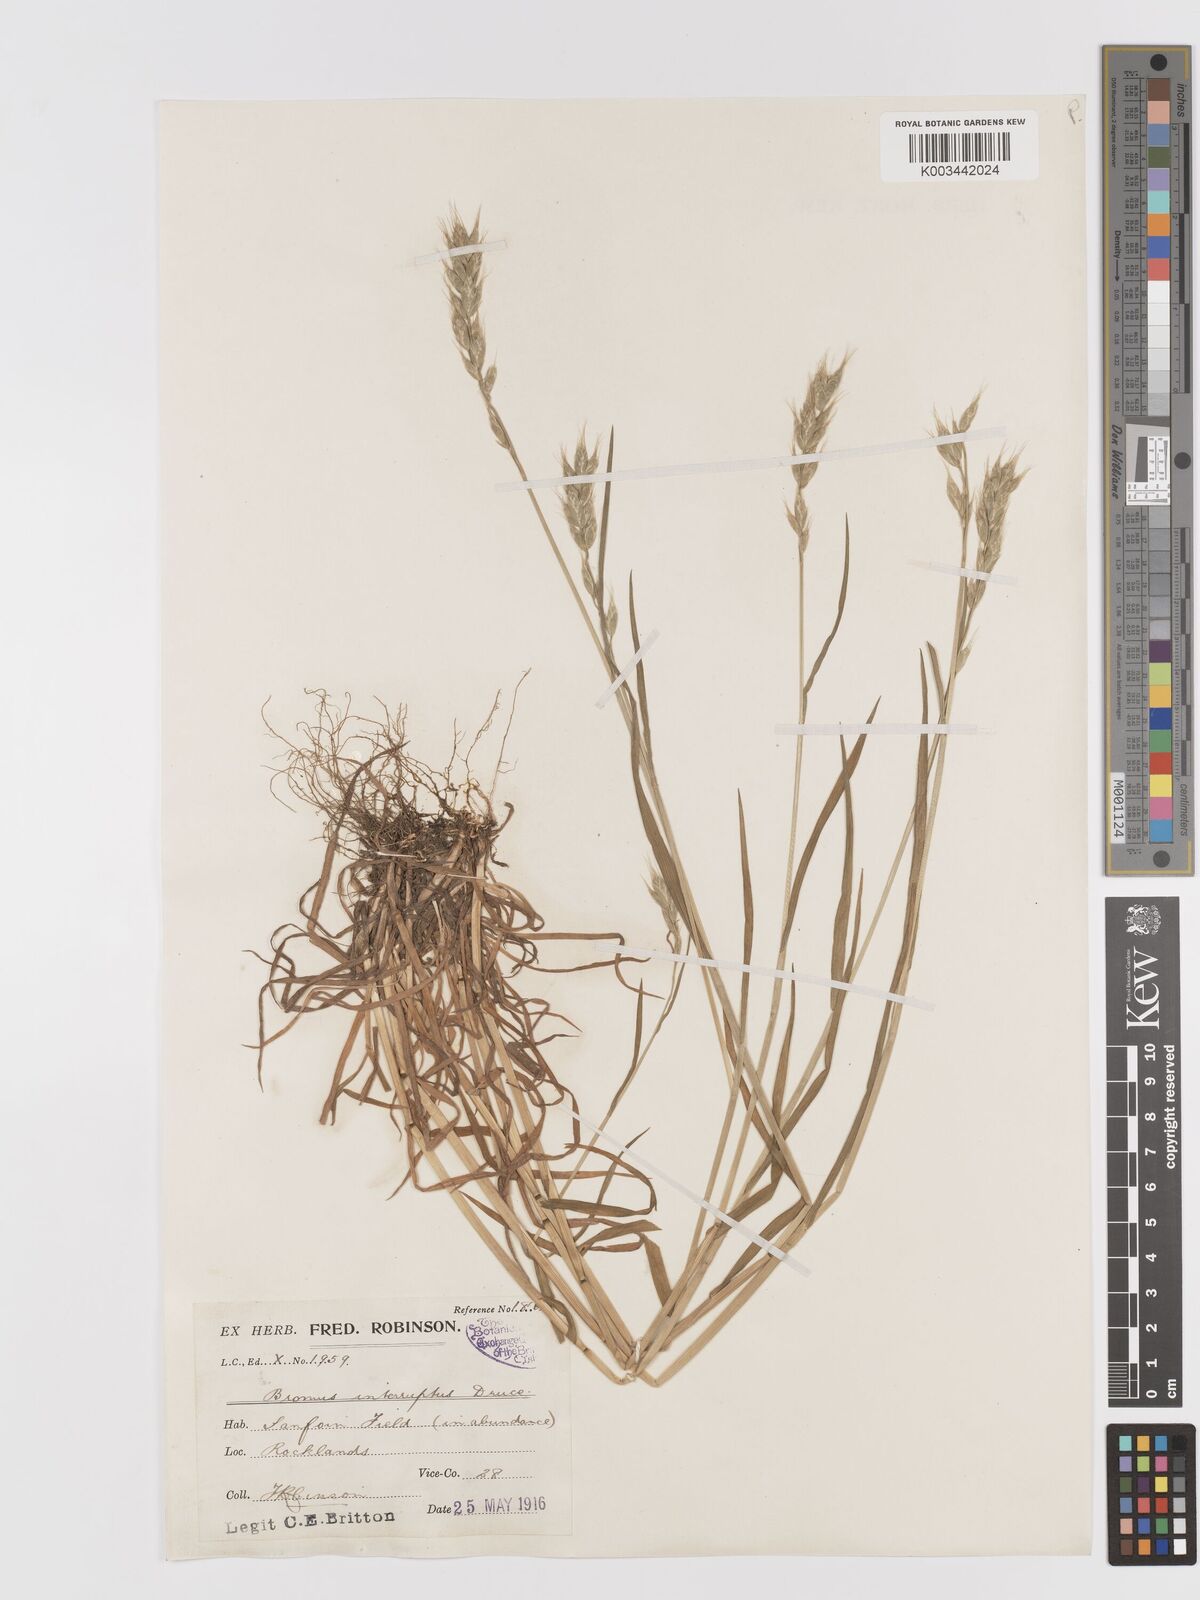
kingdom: Plantae
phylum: Tracheophyta
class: Liliopsida
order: Poales
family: Poaceae
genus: Bromus
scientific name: Bromus interruptus
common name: Interrupted brome
